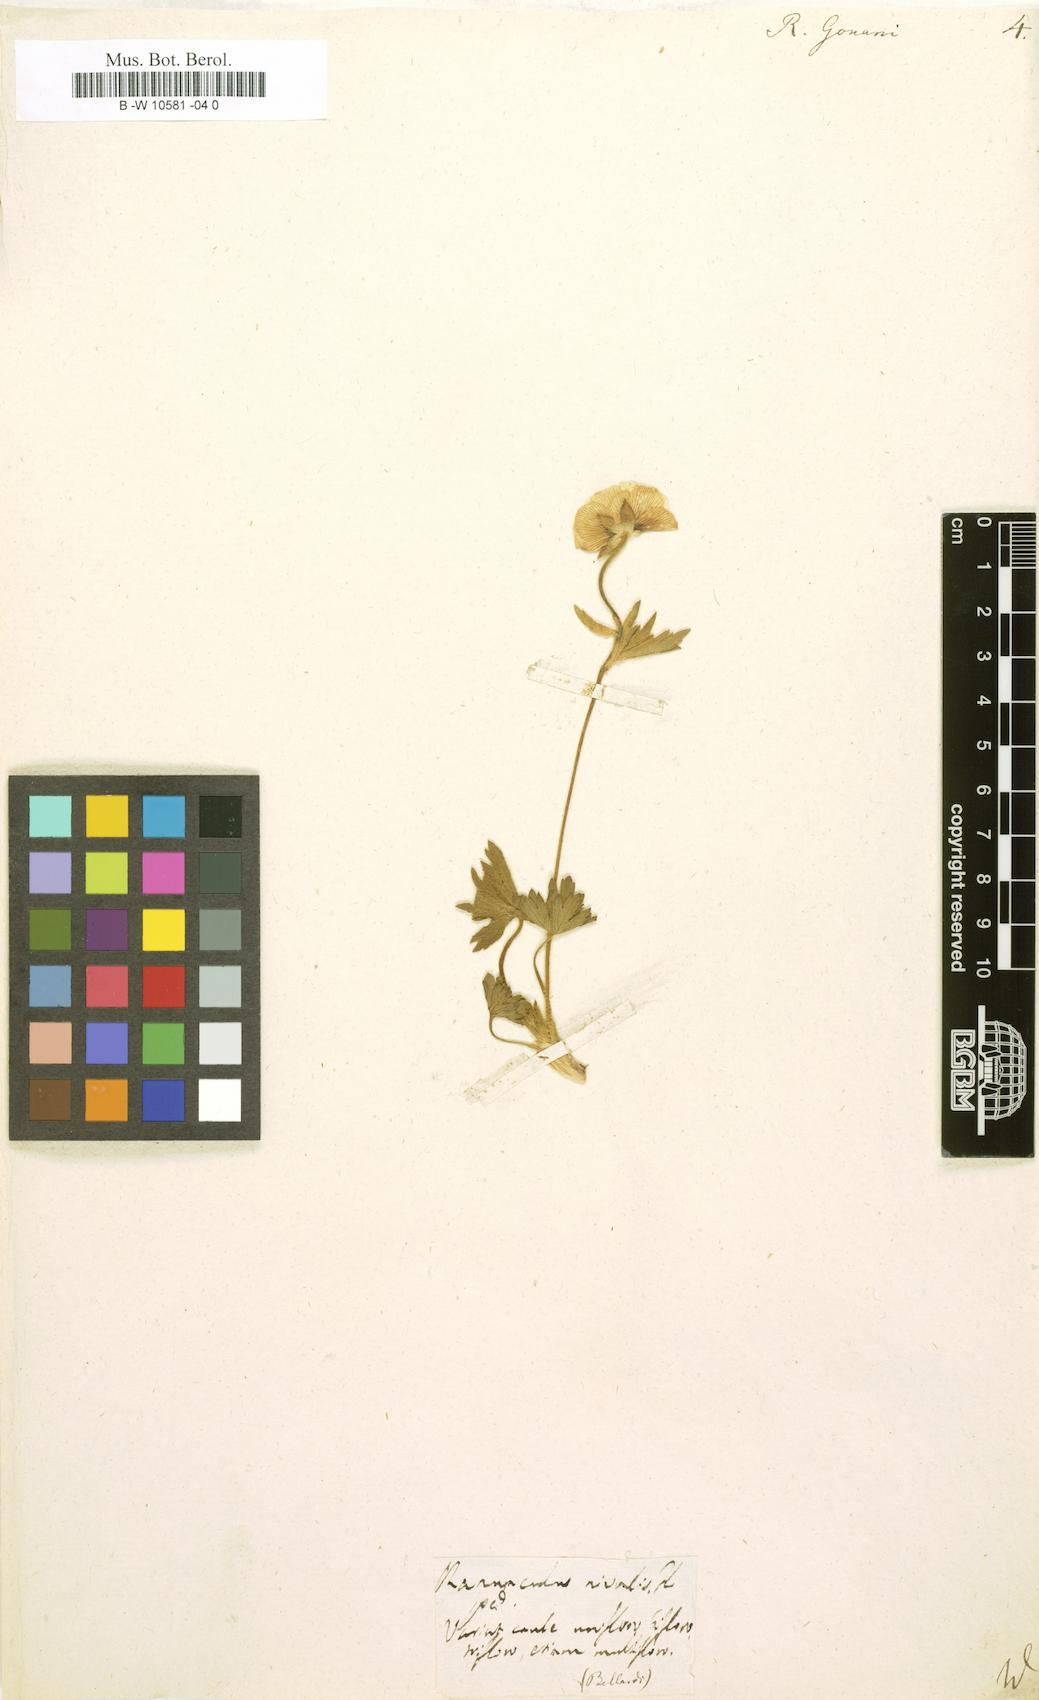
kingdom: Plantae
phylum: Tracheophyta
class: Magnoliopsida
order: Ranunculales
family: Ranunculaceae
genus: Ranunculus
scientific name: Ranunculus gouani
